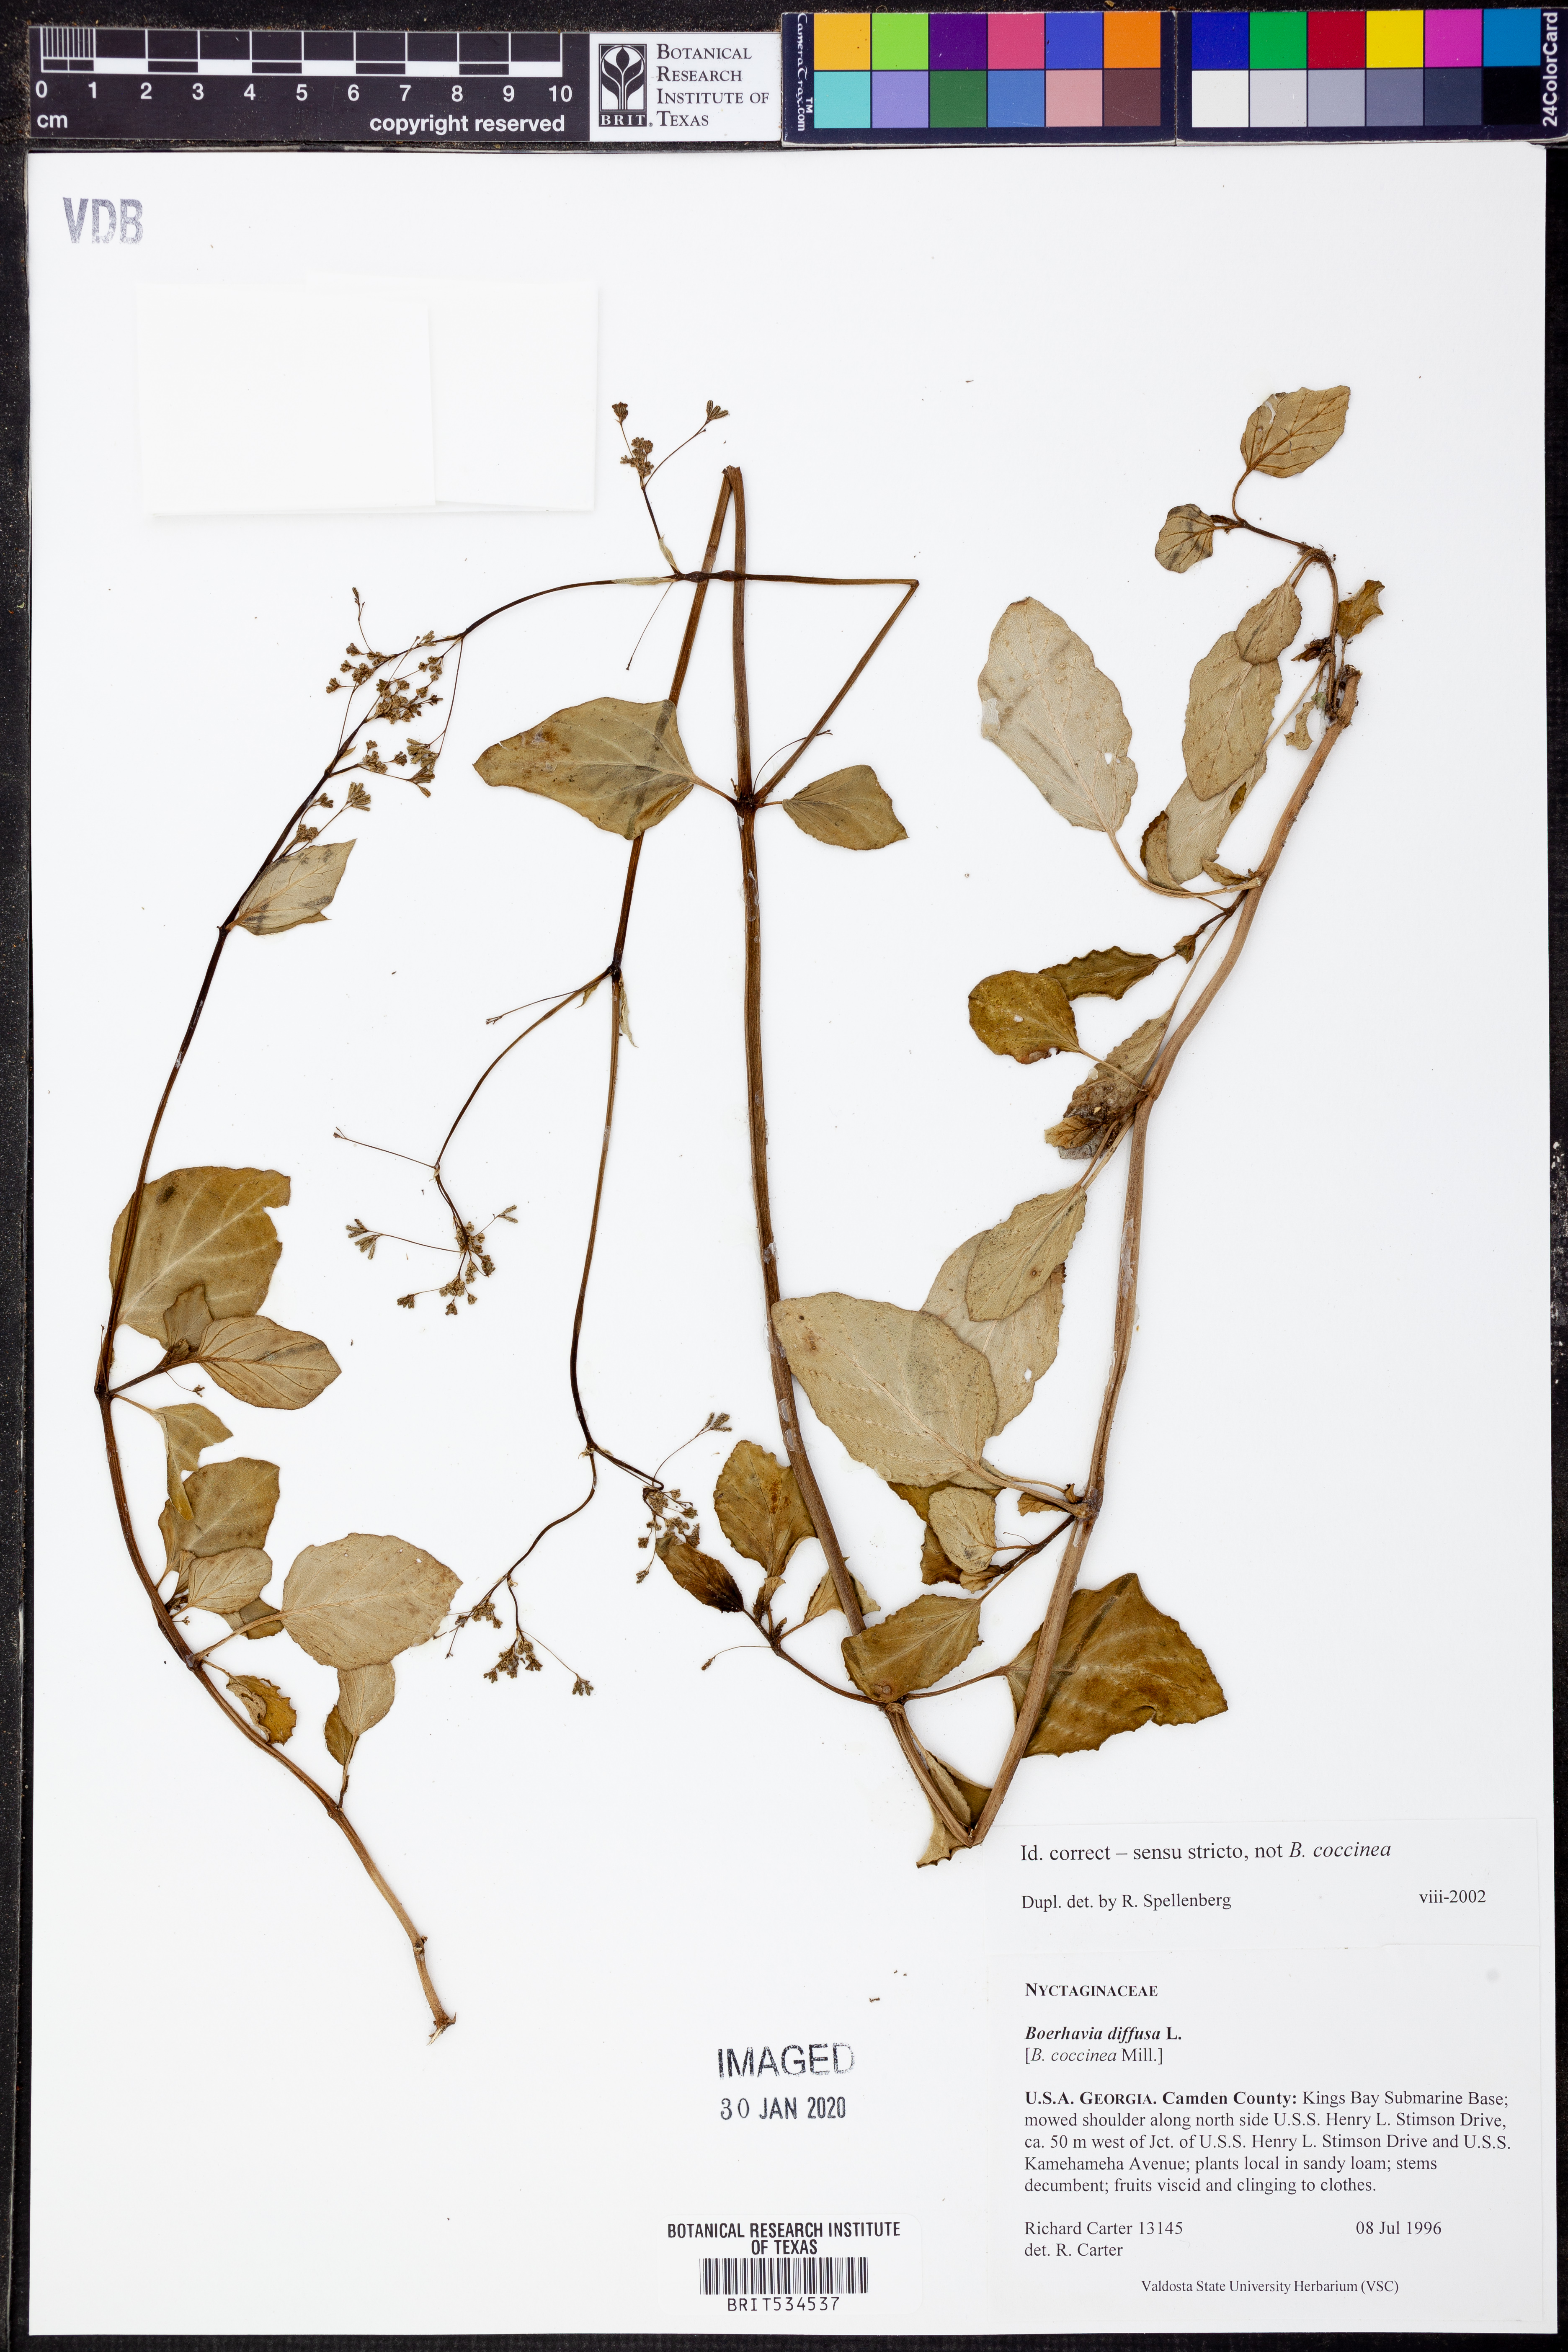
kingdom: Plantae
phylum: Tracheophyta
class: Magnoliopsida
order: Caryophyllales
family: Nyctaginaceae
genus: Boerhavia
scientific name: Boerhavia diffusa
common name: Red spiderling
